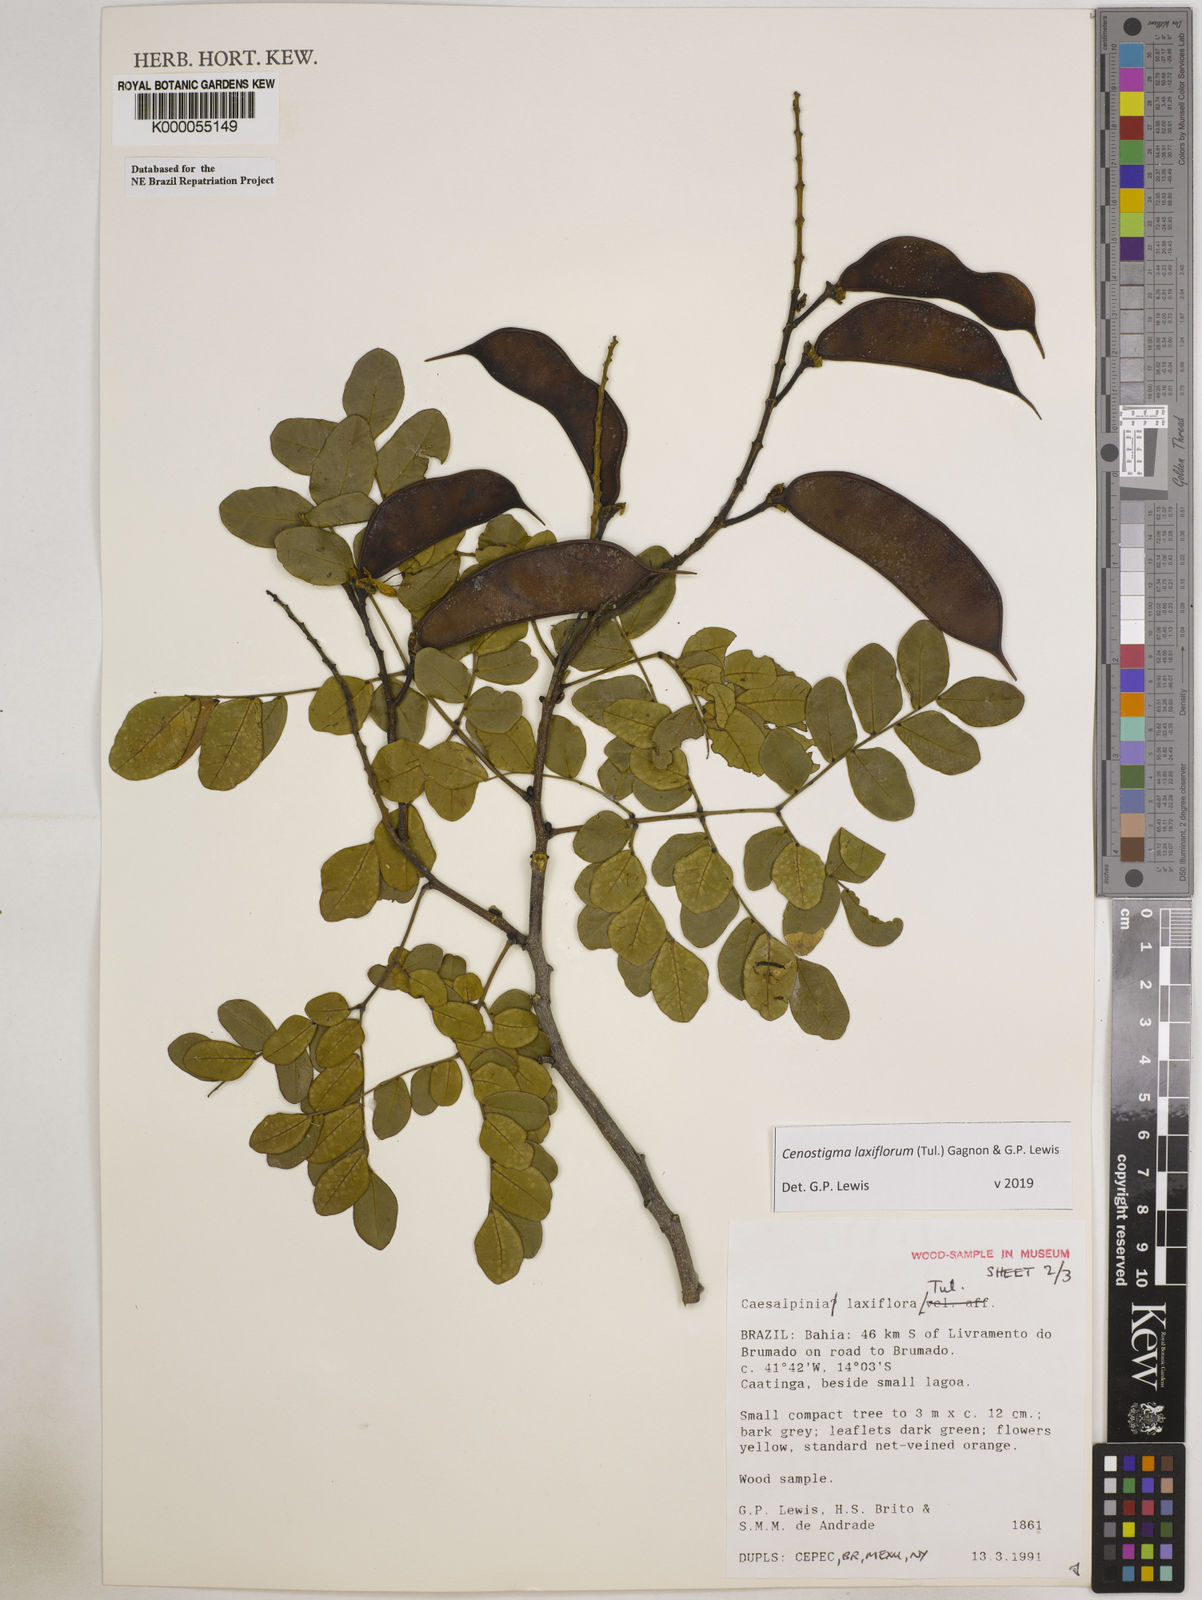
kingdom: Plantae
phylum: Tracheophyta
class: Magnoliopsida
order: Fabales
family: Fabaceae
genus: Cenostigma
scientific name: Cenostigma laxiflorum
